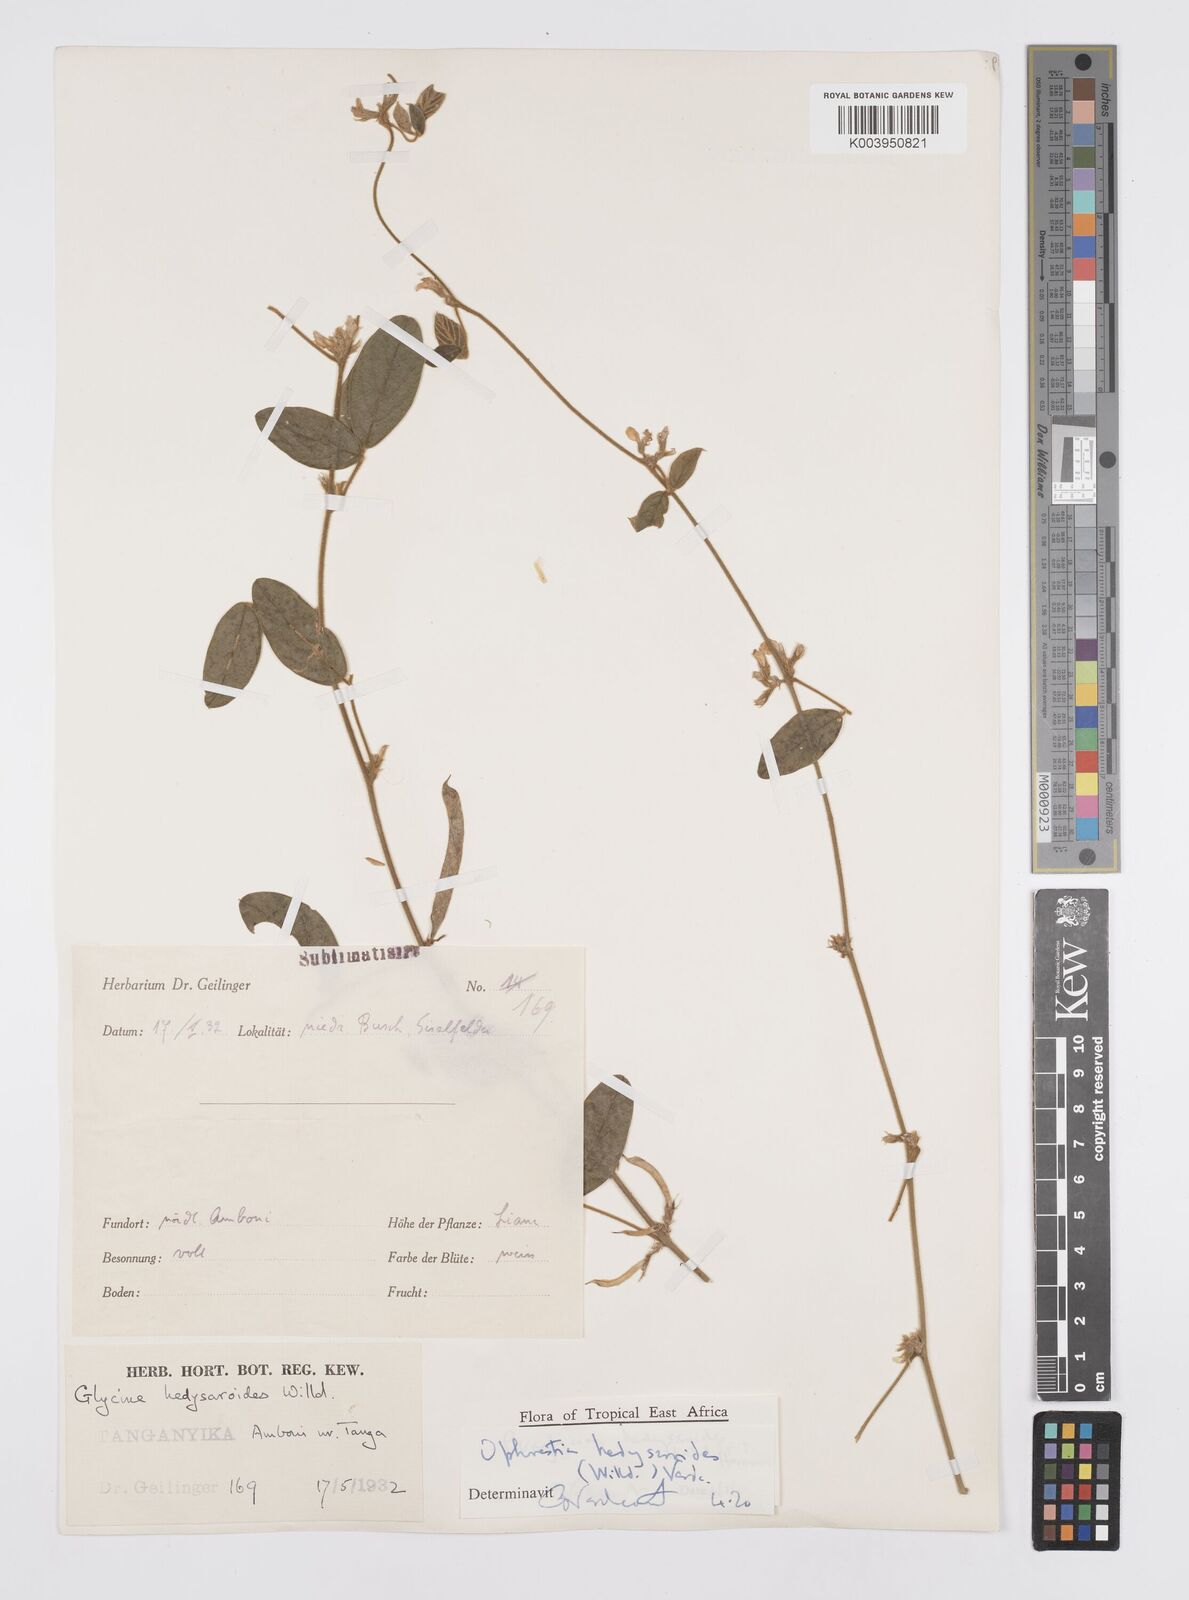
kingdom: Plantae
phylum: Tracheophyta
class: Magnoliopsida
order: Fabales
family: Fabaceae
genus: Ophrestia
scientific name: Ophrestia hedysaroides
